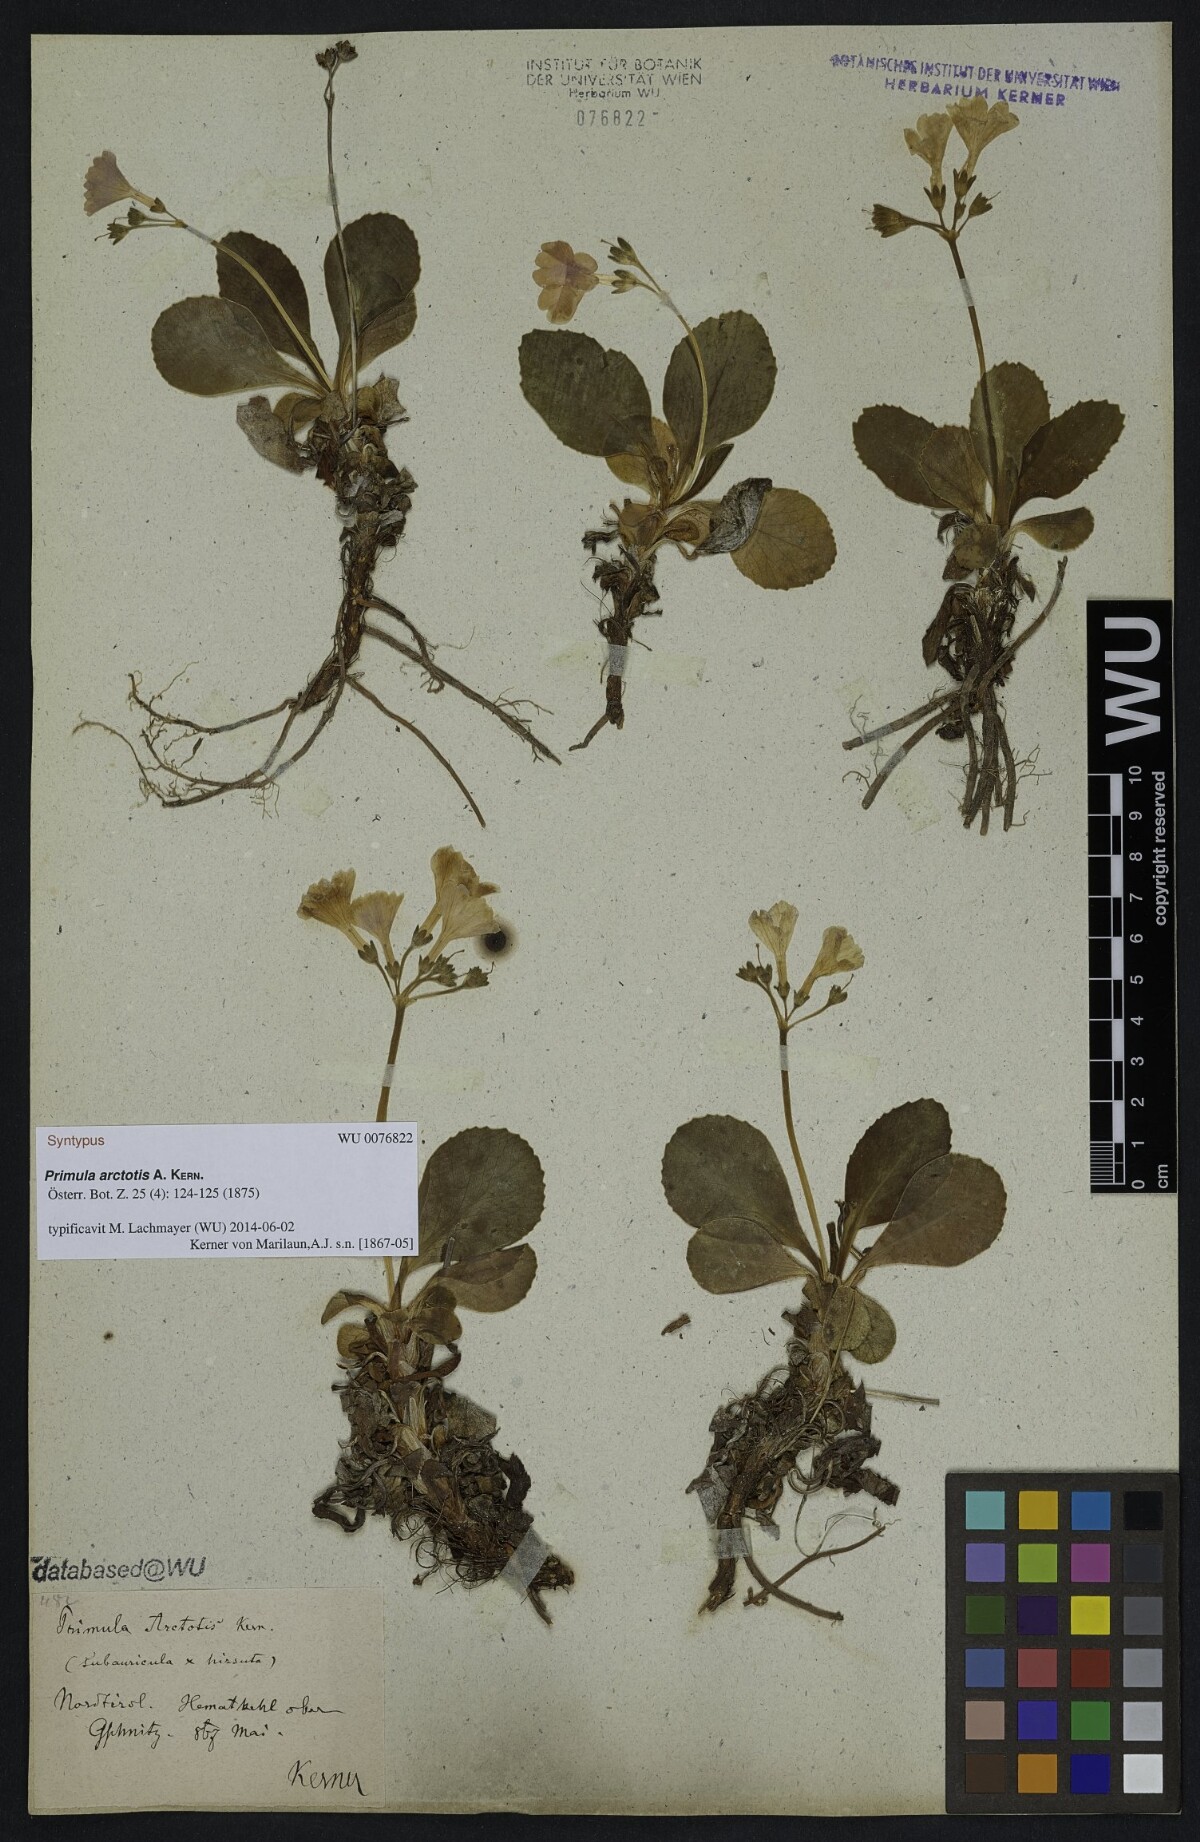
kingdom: Plantae
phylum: Tracheophyta
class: Magnoliopsida
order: Ericales
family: Primulaceae
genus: Primula
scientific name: Primula arctotis
